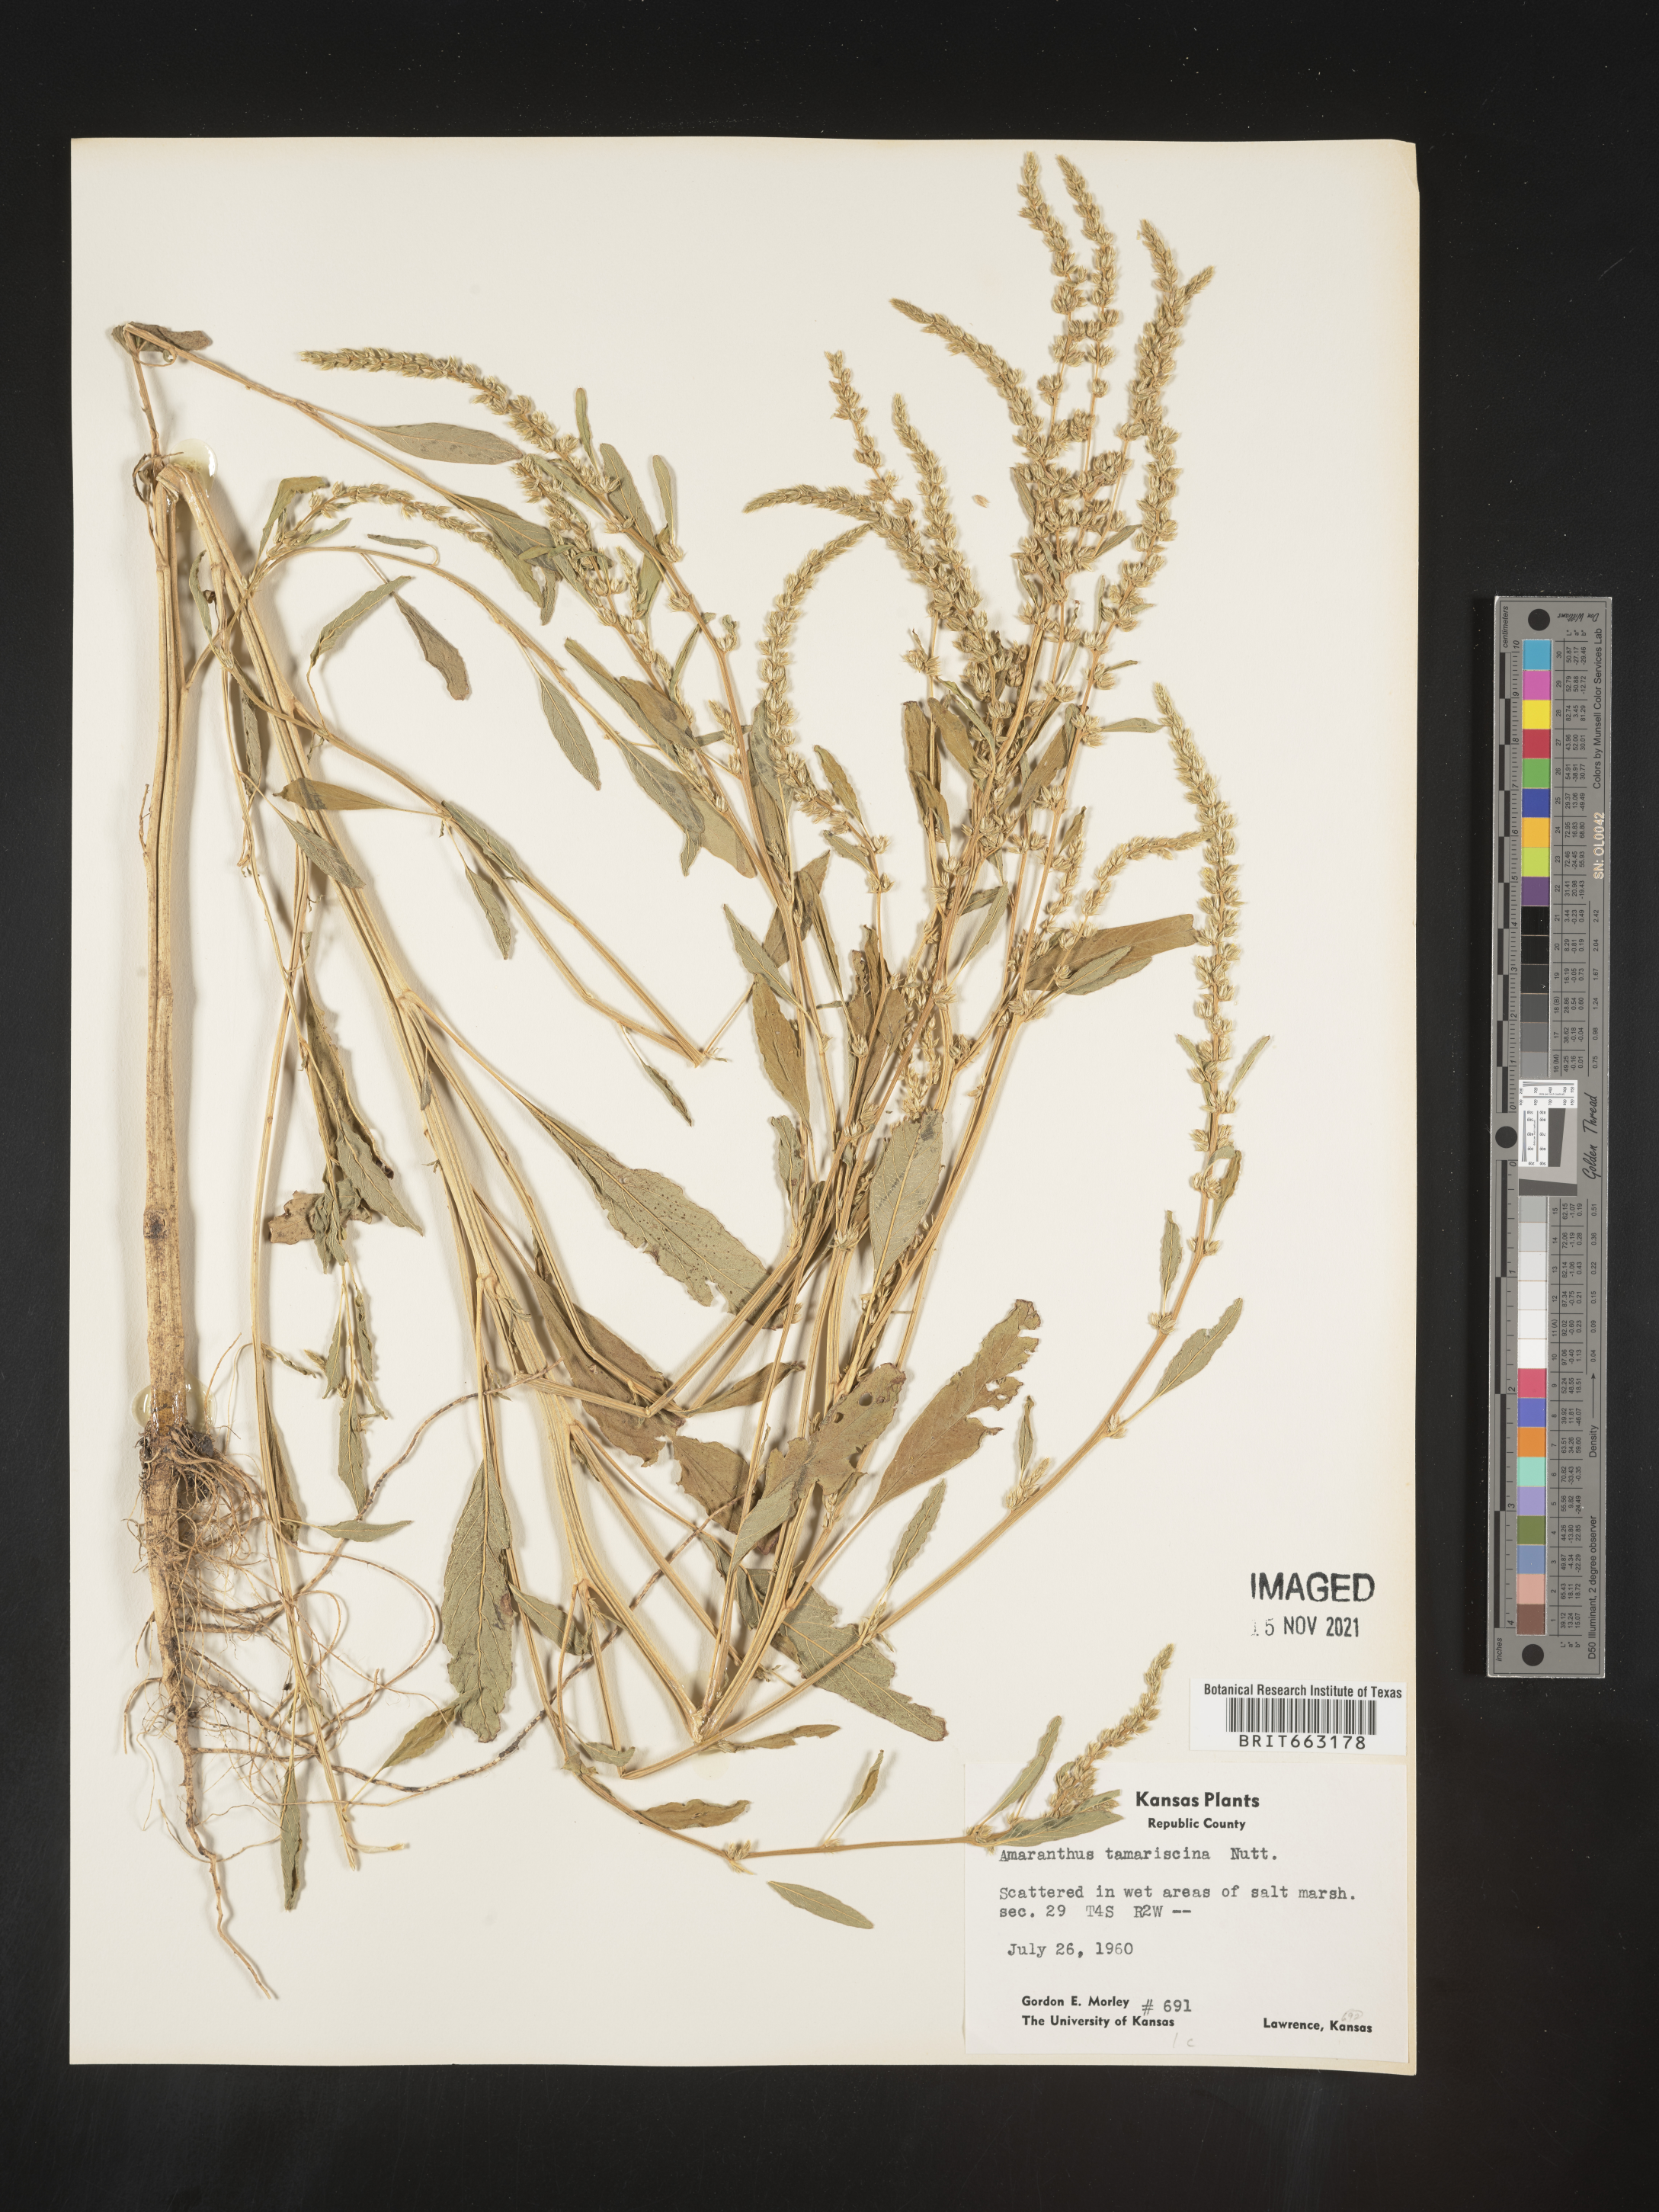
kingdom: Plantae
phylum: Tracheophyta
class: Magnoliopsida
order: Caryophyllales
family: Amaranthaceae
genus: Amaranthus
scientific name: Amaranthus tamariscinus
